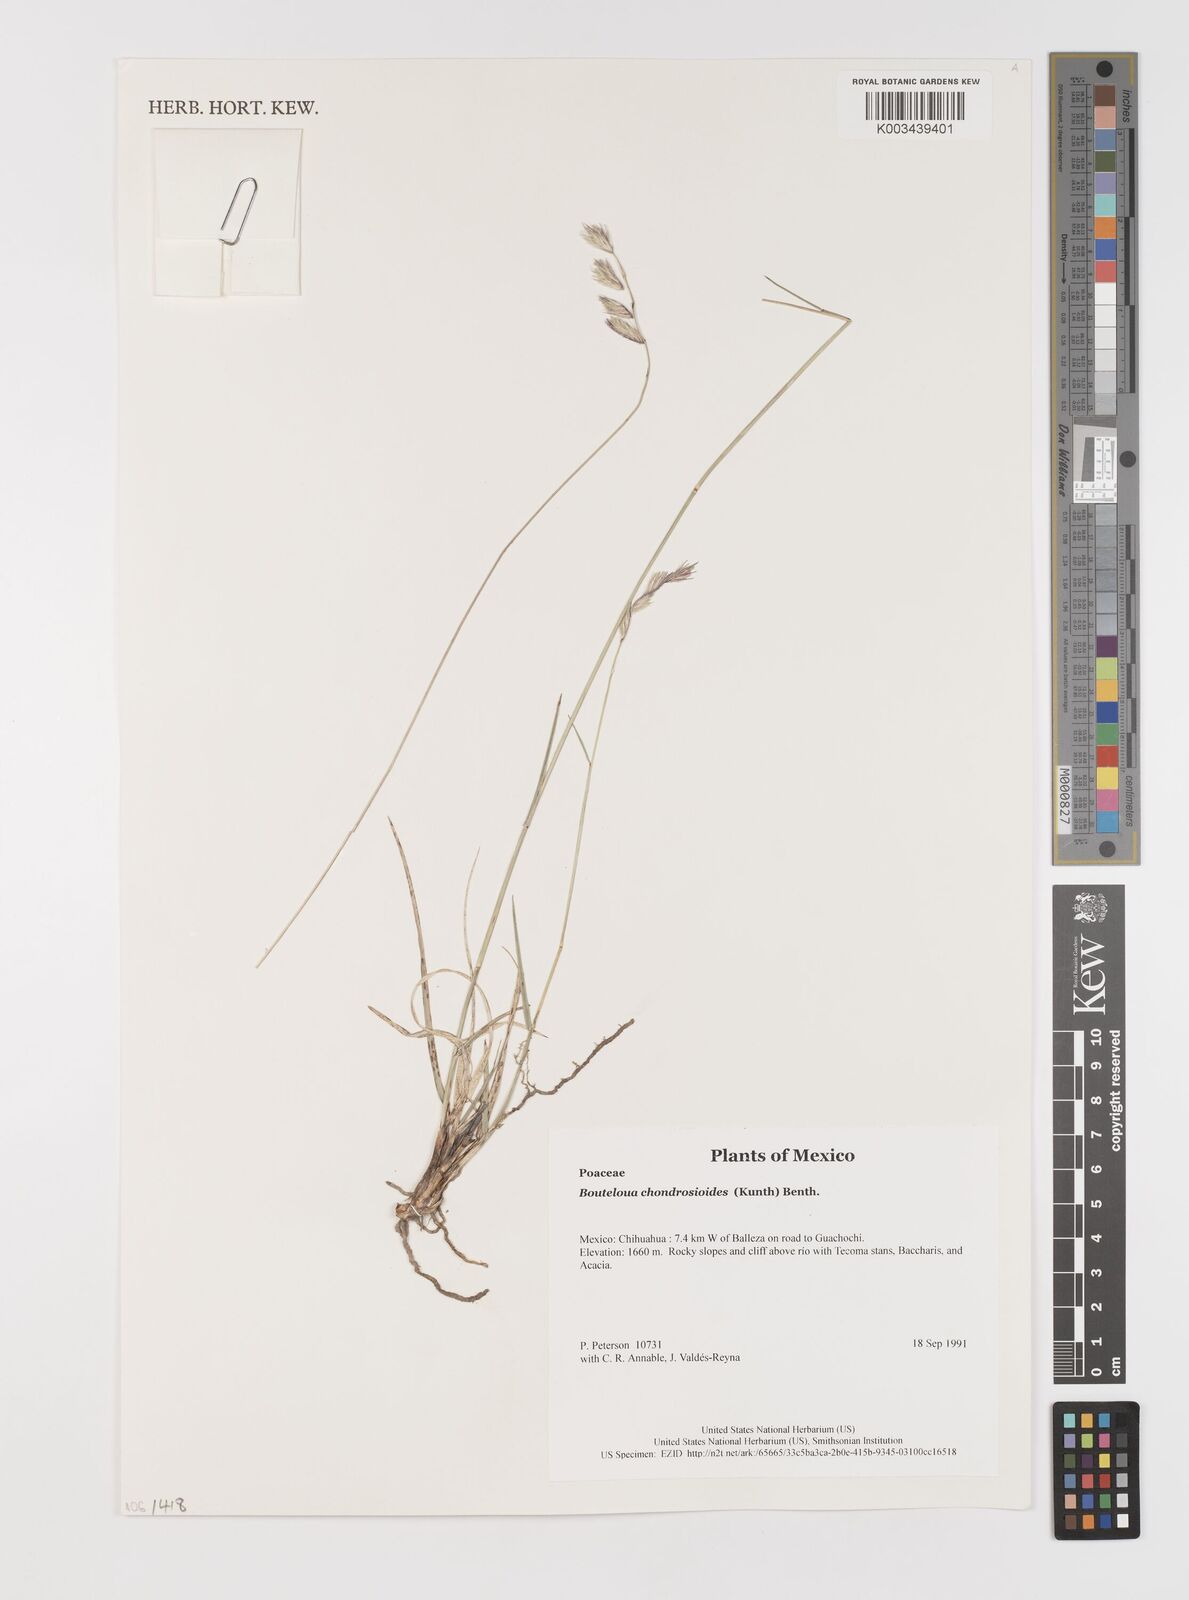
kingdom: Plantae
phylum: Tracheophyta
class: Liliopsida
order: Poales
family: Poaceae
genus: Bouteloua
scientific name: Bouteloua chondrosioides
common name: Sprucetop grama
